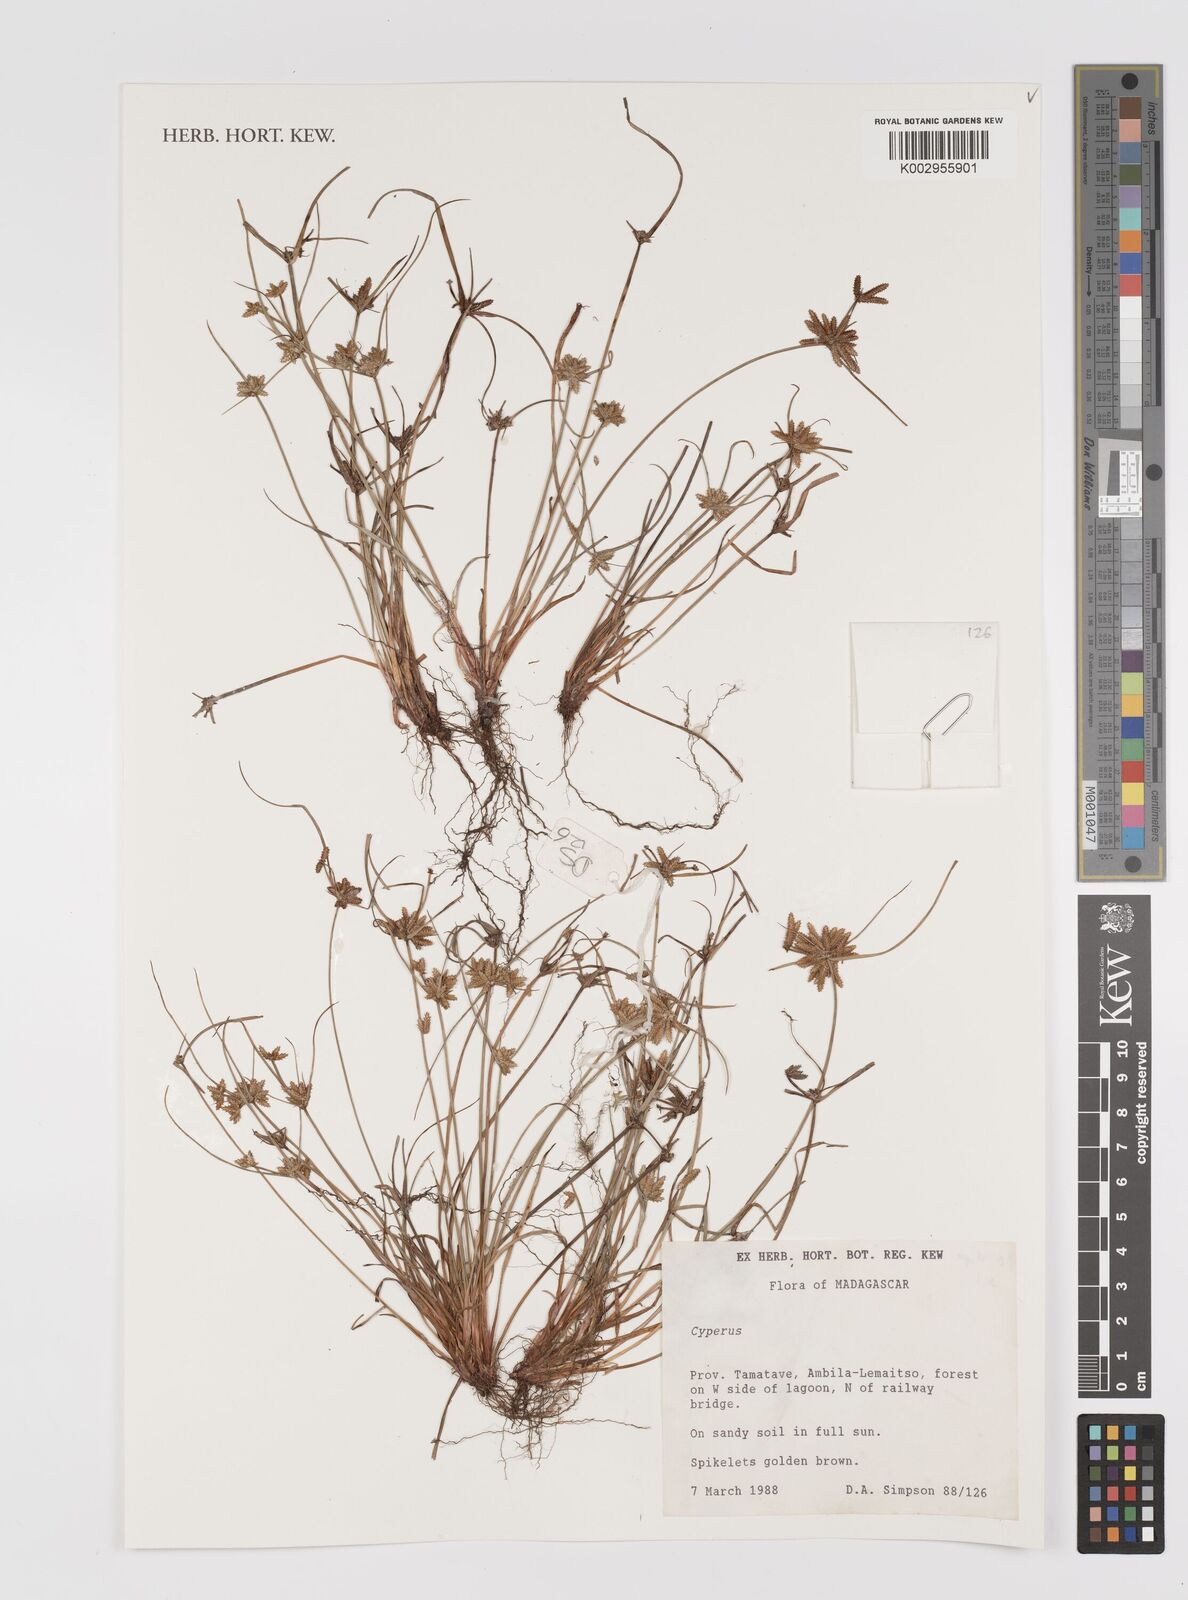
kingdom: Plantae
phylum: Tracheophyta
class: Liliopsida
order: Poales
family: Cyperaceae
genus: Cyperus
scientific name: Cyperus
